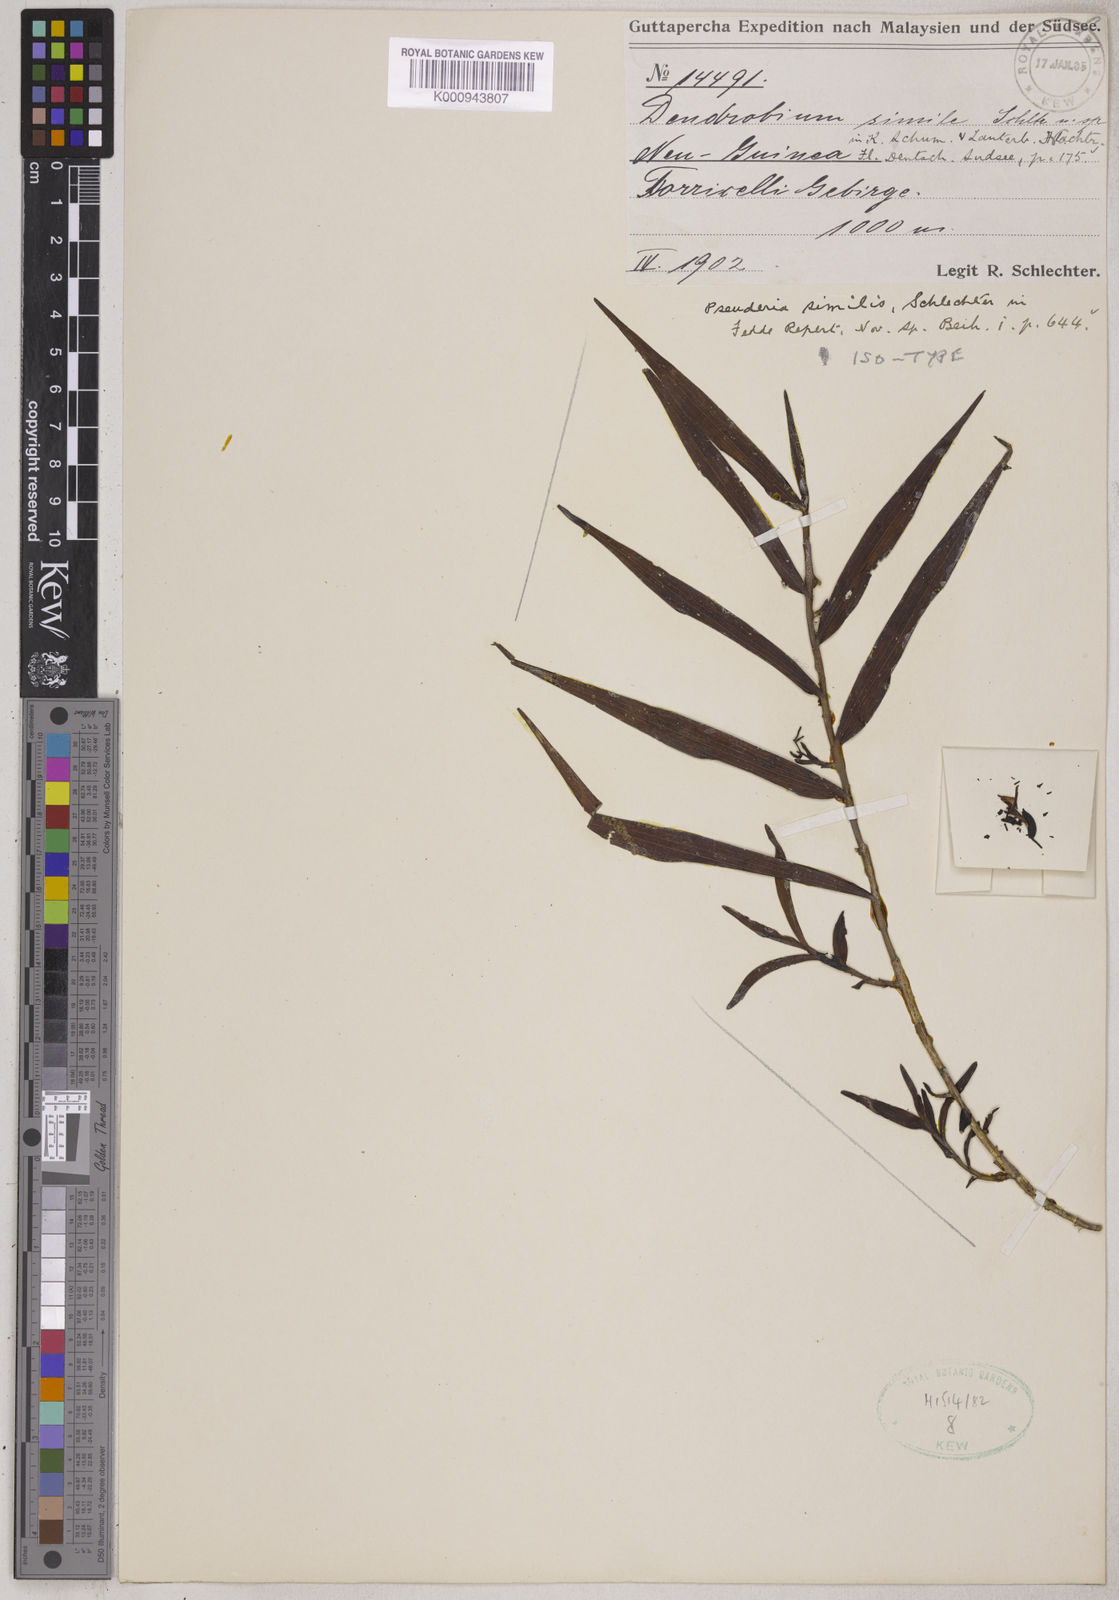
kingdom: Plantae
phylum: Tracheophyta
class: Liliopsida
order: Asparagales
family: Orchidaceae
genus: Pseuderia
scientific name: Pseuderia similis
